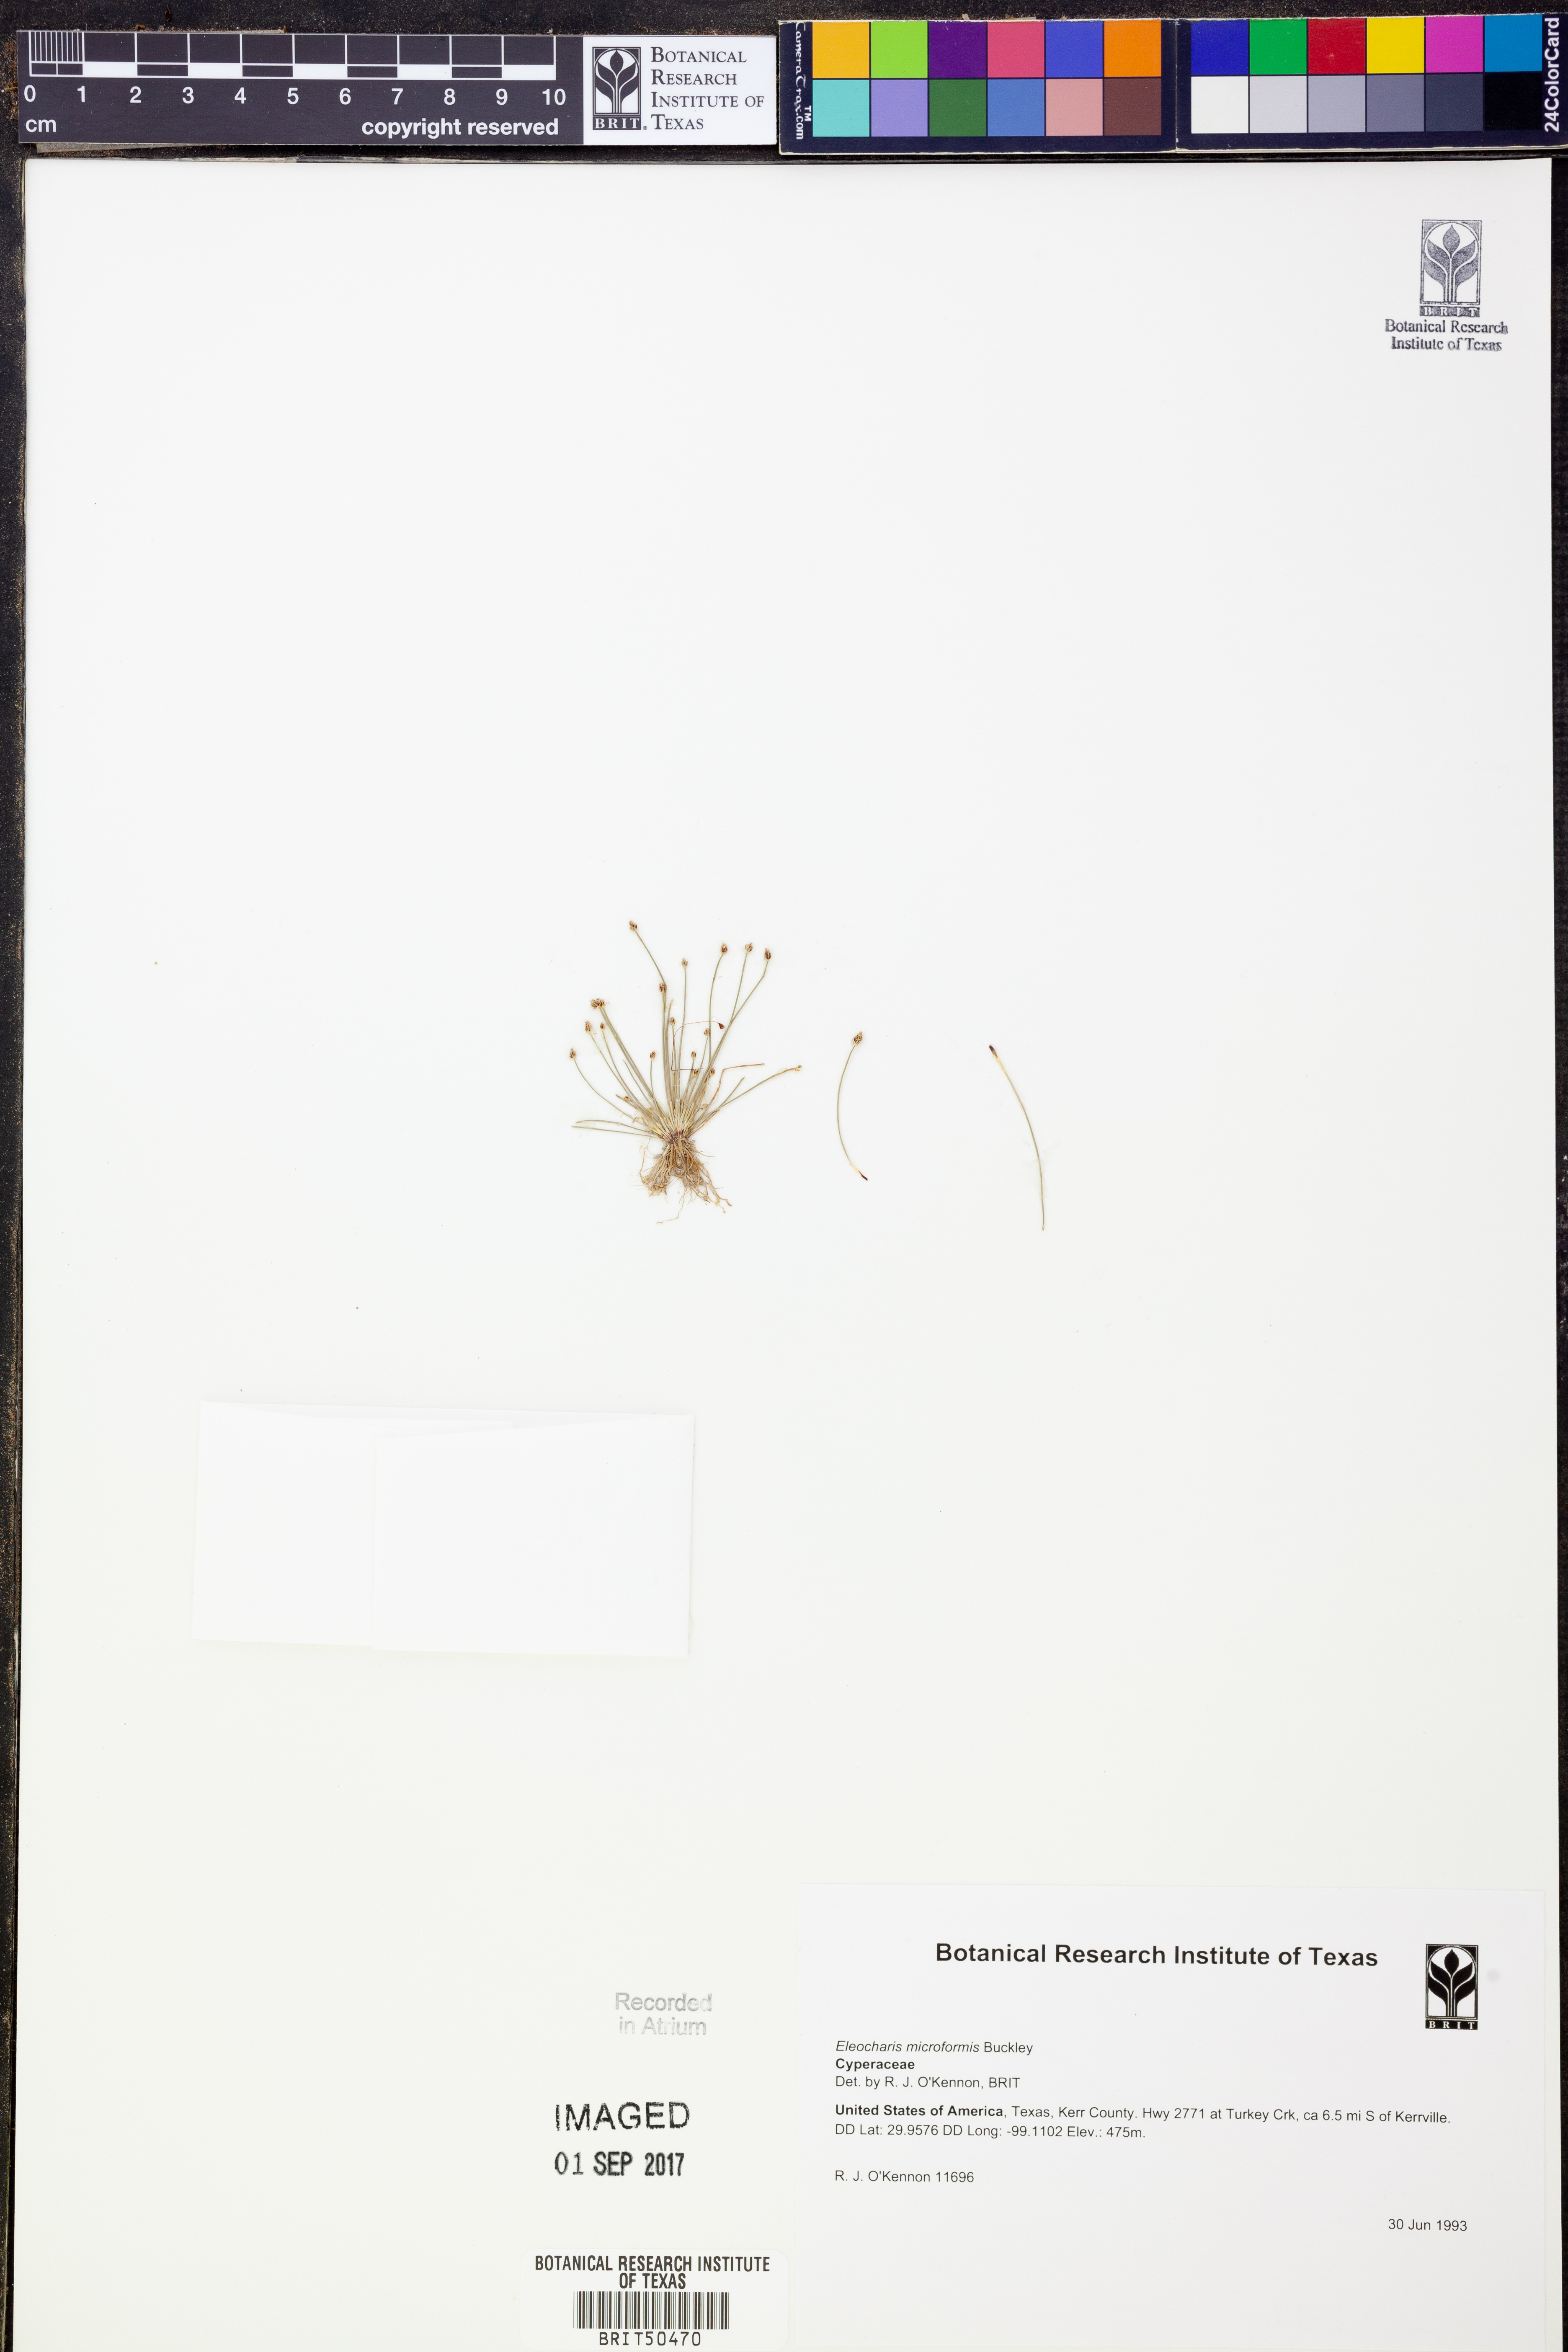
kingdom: Plantae
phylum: Tracheophyta
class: Liliopsida
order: Poales
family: Cyperaceae
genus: Eleocharis
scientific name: Eleocharis microformis
